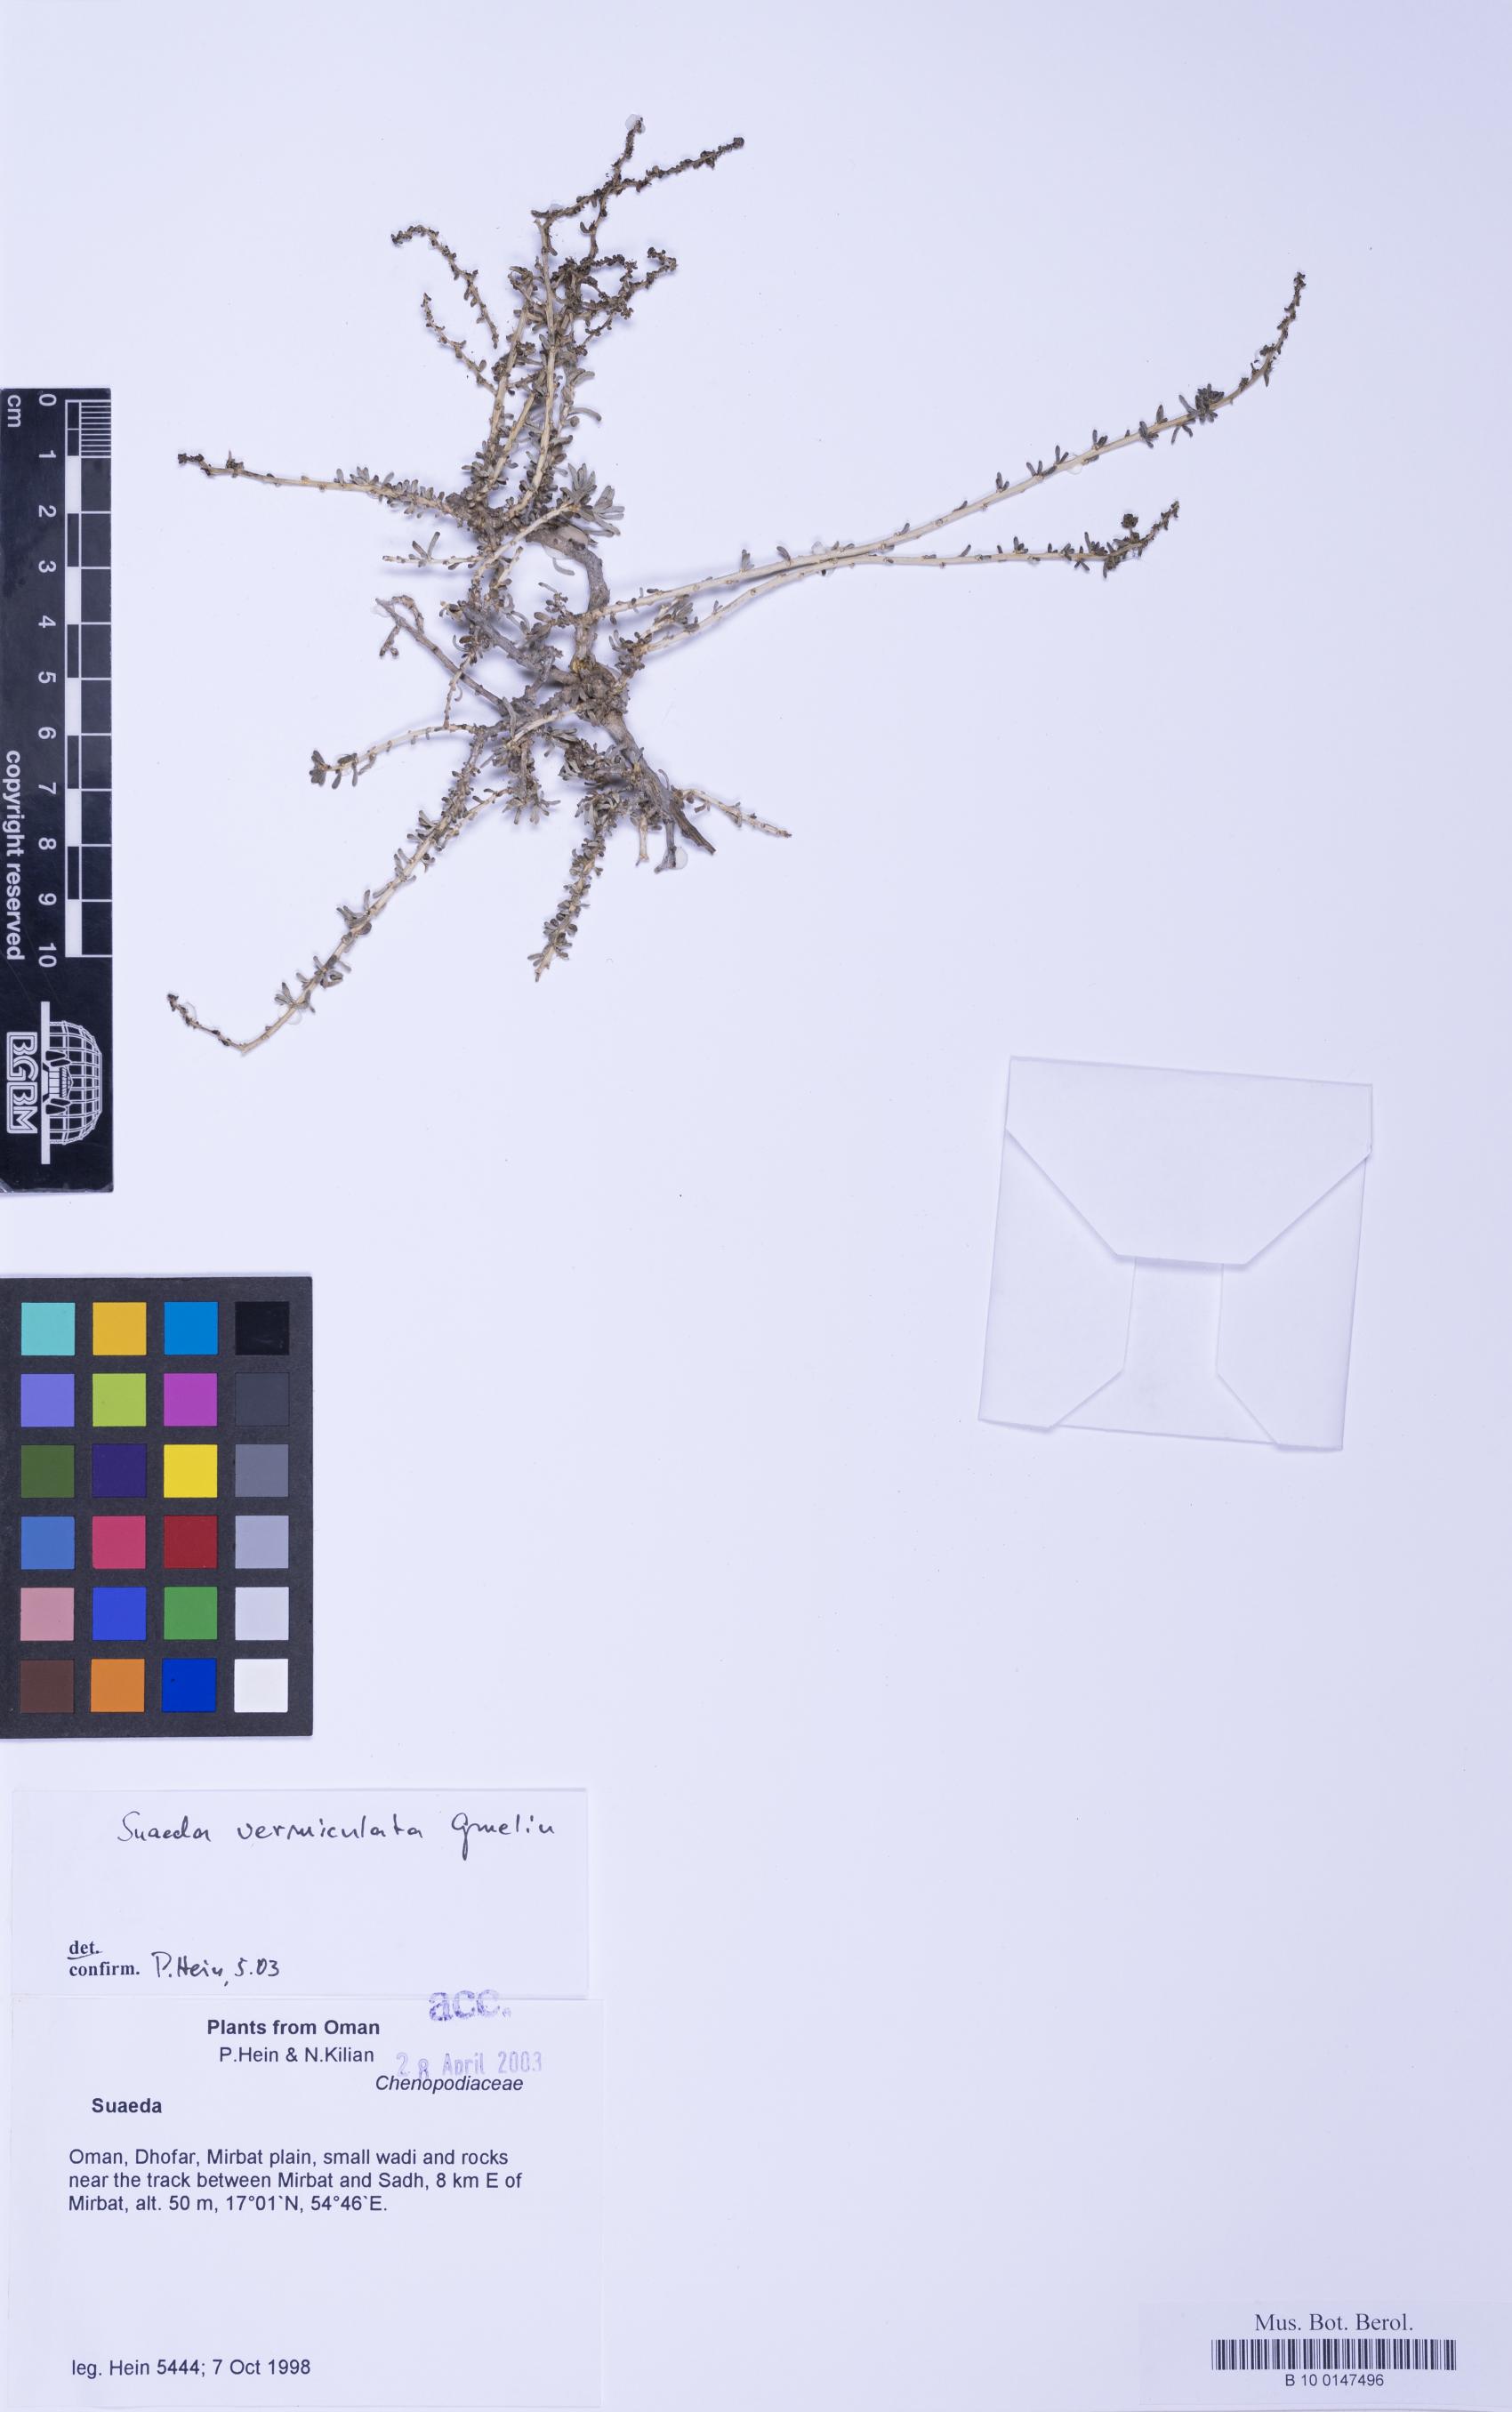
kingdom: Plantae
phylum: Tracheophyta
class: Magnoliopsida
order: Caryophyllales
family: Amaranthaceae
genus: Suaeda
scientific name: Suaeda vermiculata
